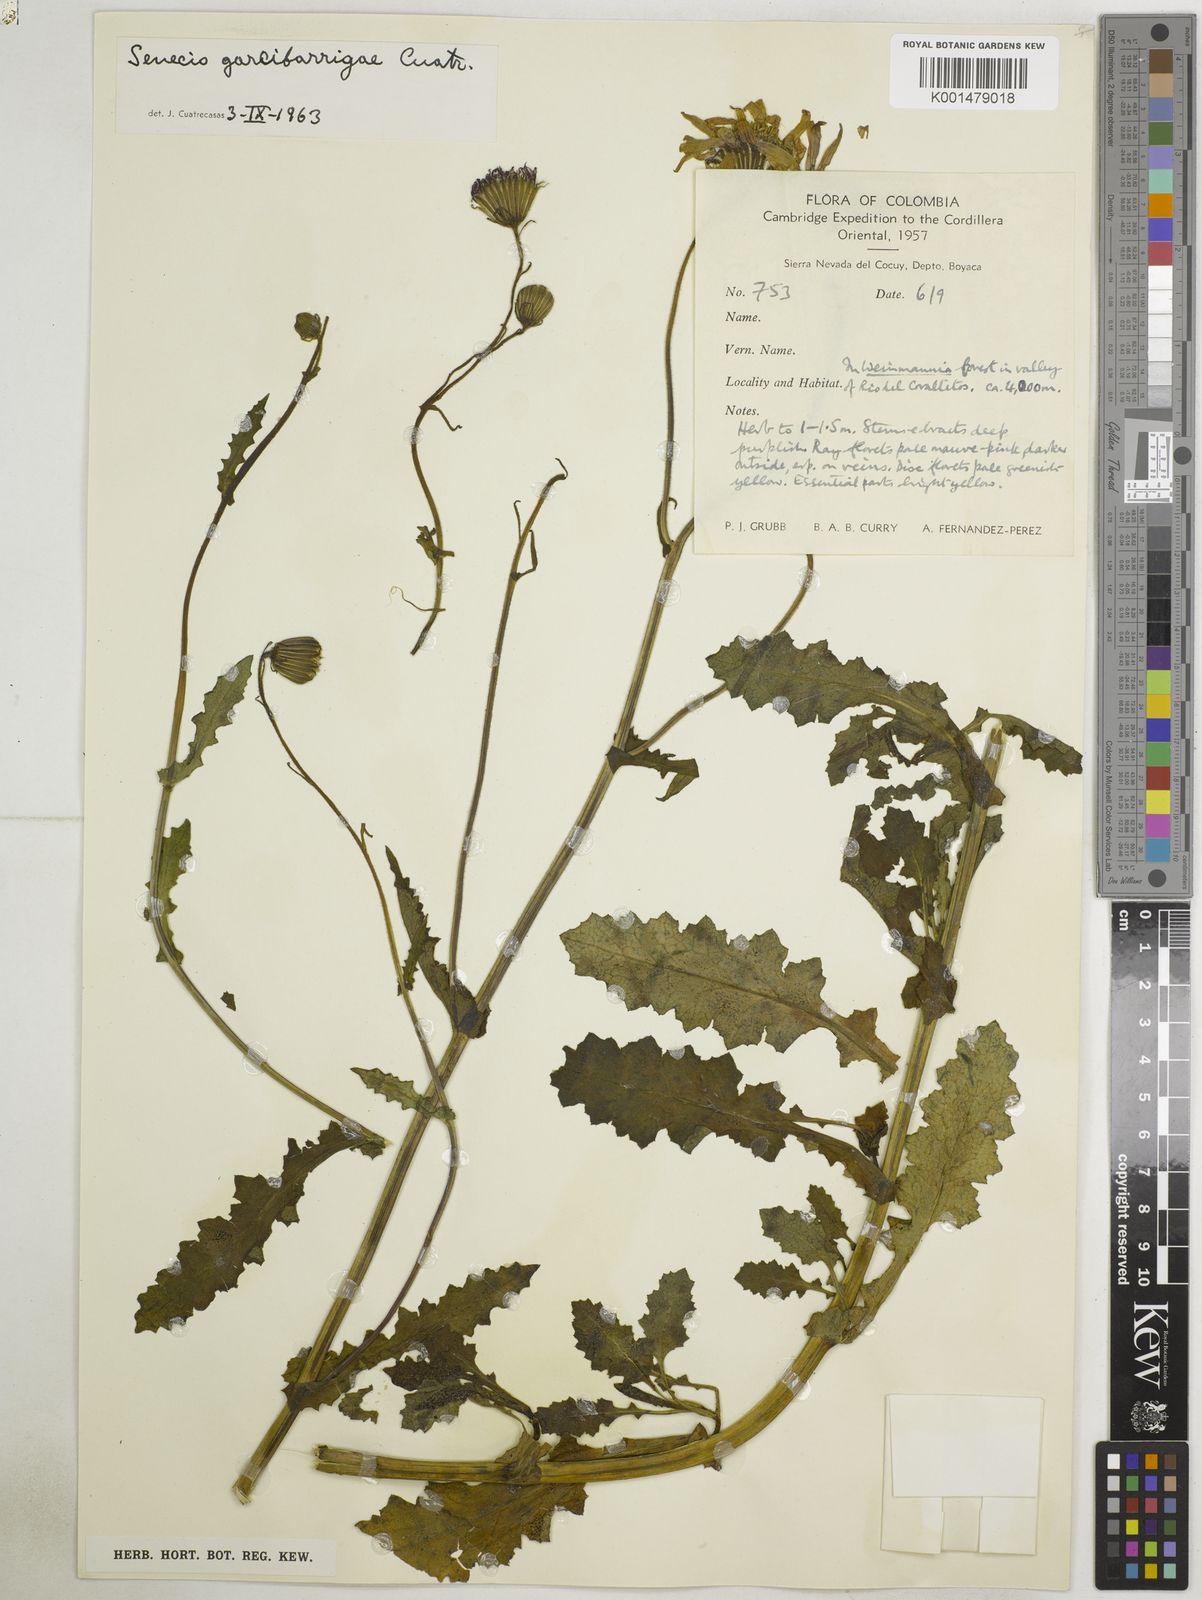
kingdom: Plantae
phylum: Tracheophyta
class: Magnoliopsida
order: Asterales
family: Asteraceae
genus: Senecio
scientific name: Senecio garcibarrigae
